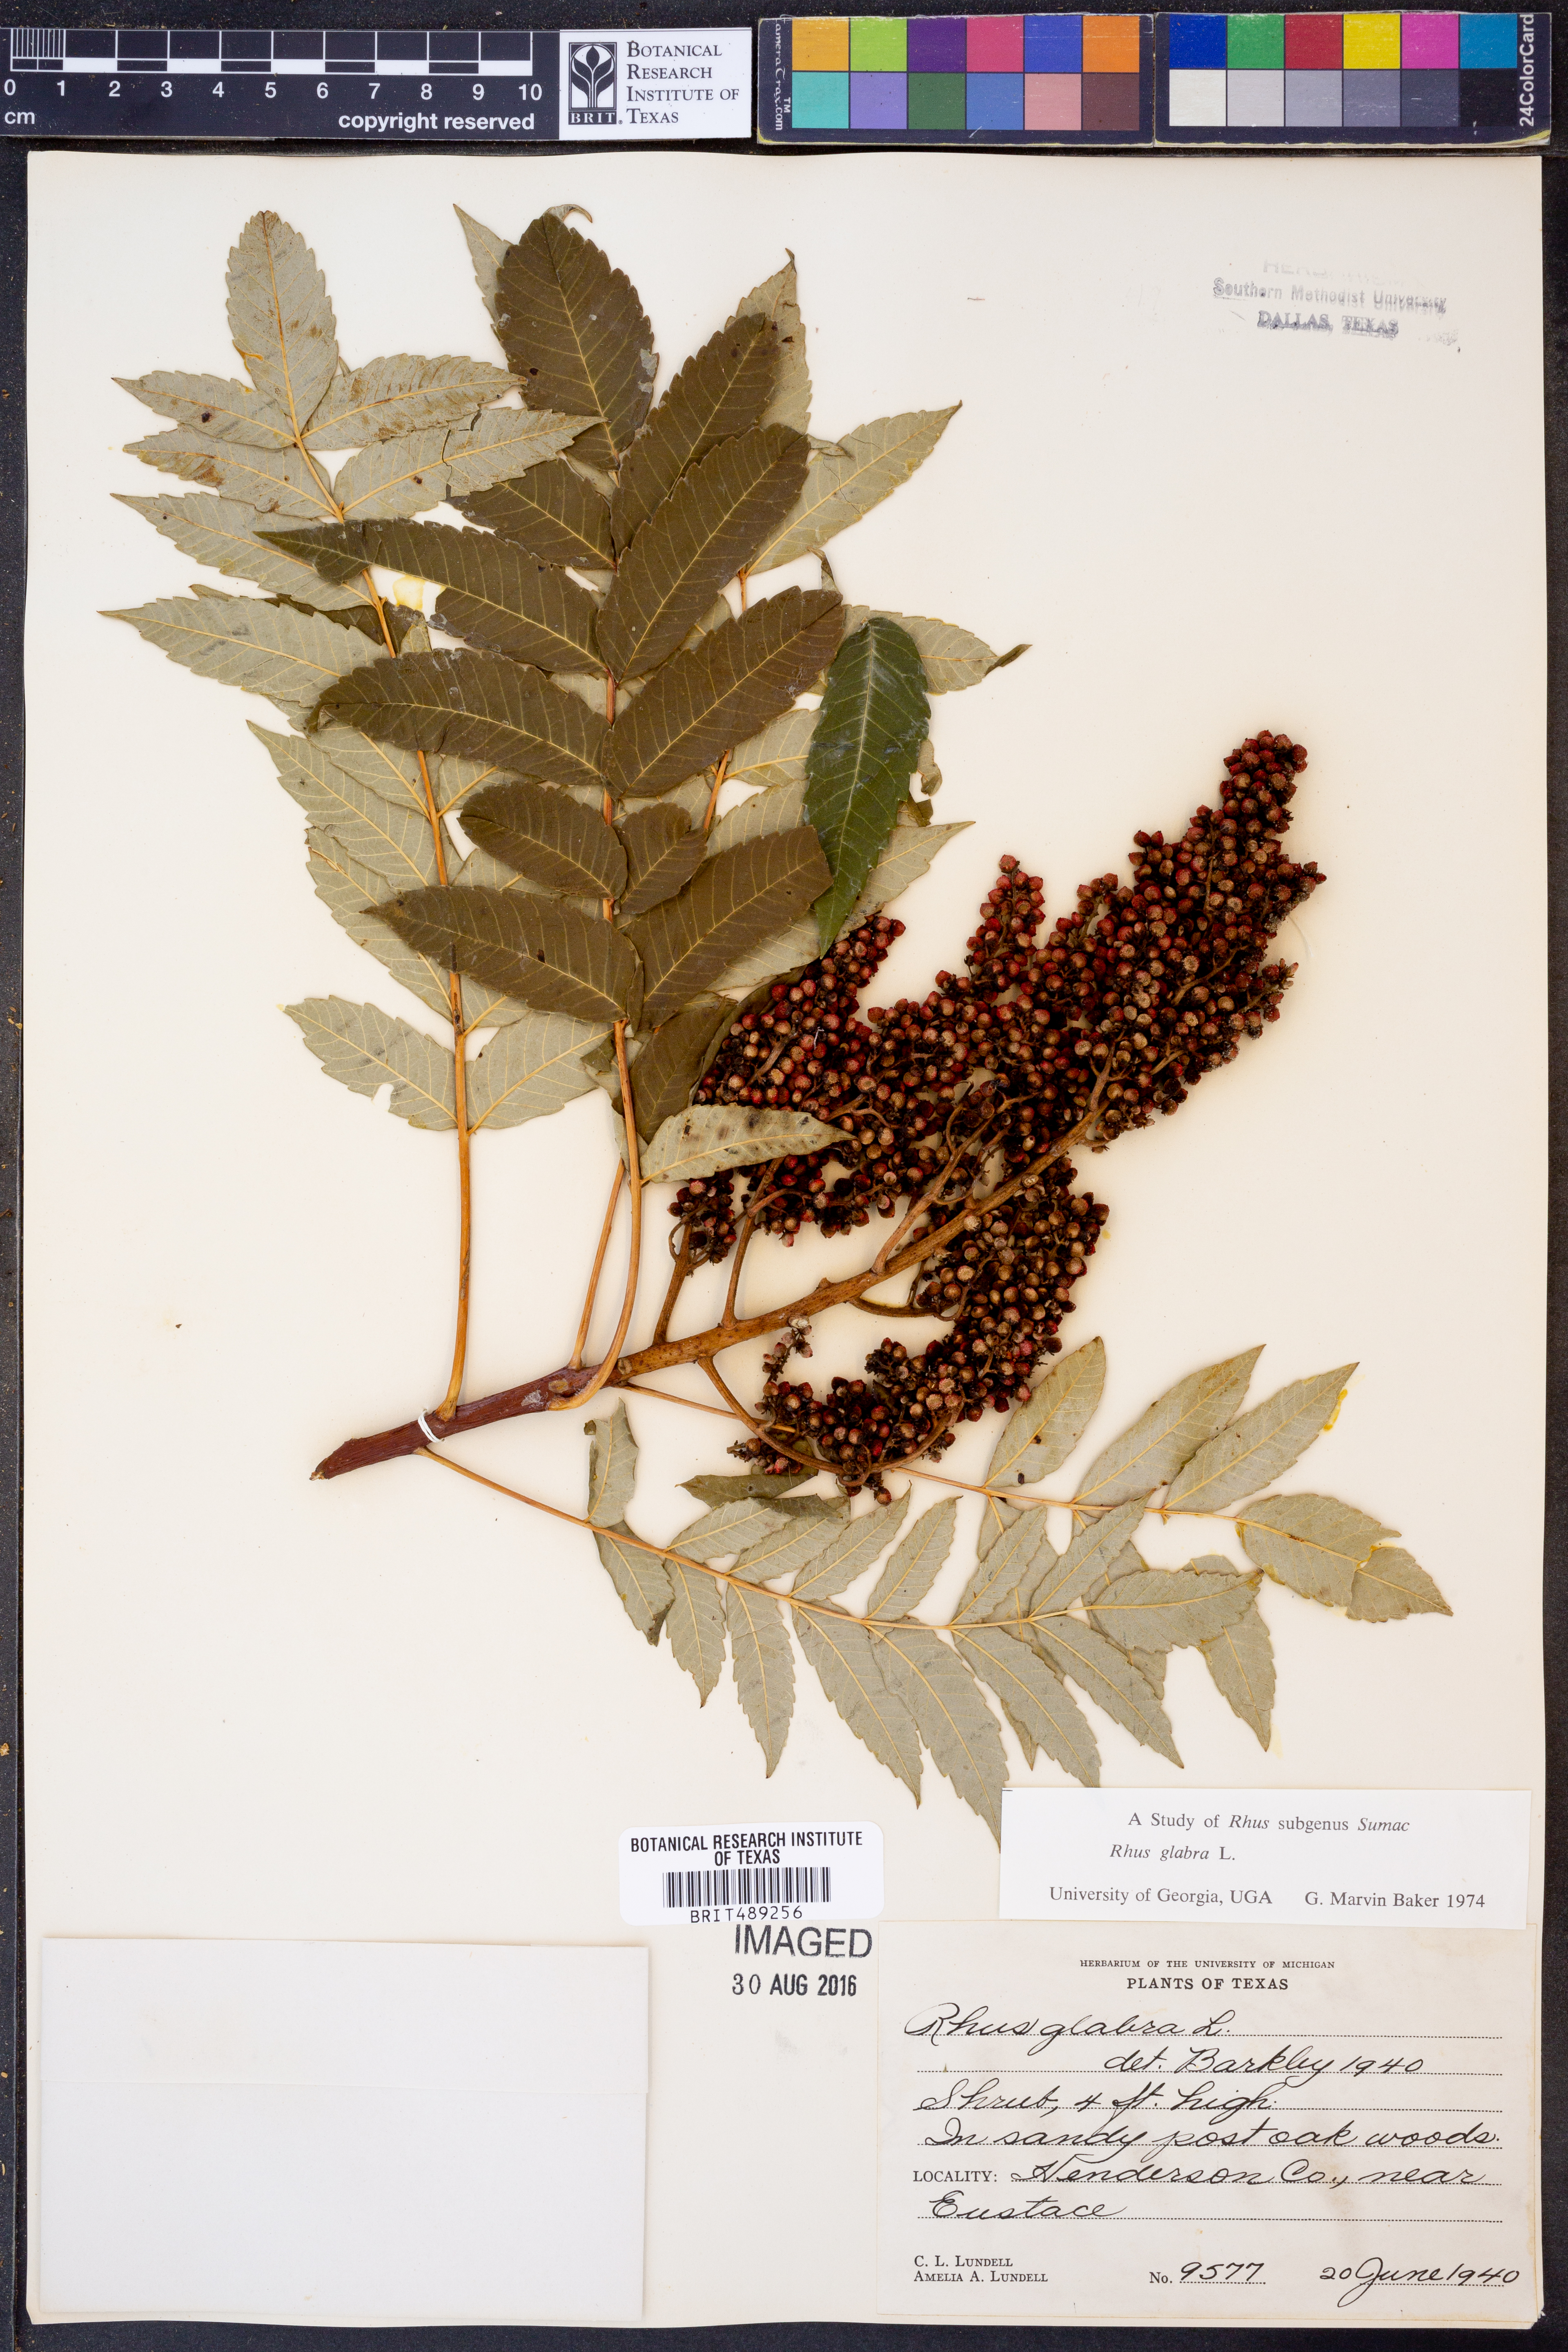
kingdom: Plantae
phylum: Tracheophyta
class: Magnoliopsida
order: Sapindales
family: Anacardiaceae
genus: Rhus
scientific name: Rhus glabra
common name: Scarlet sumac
